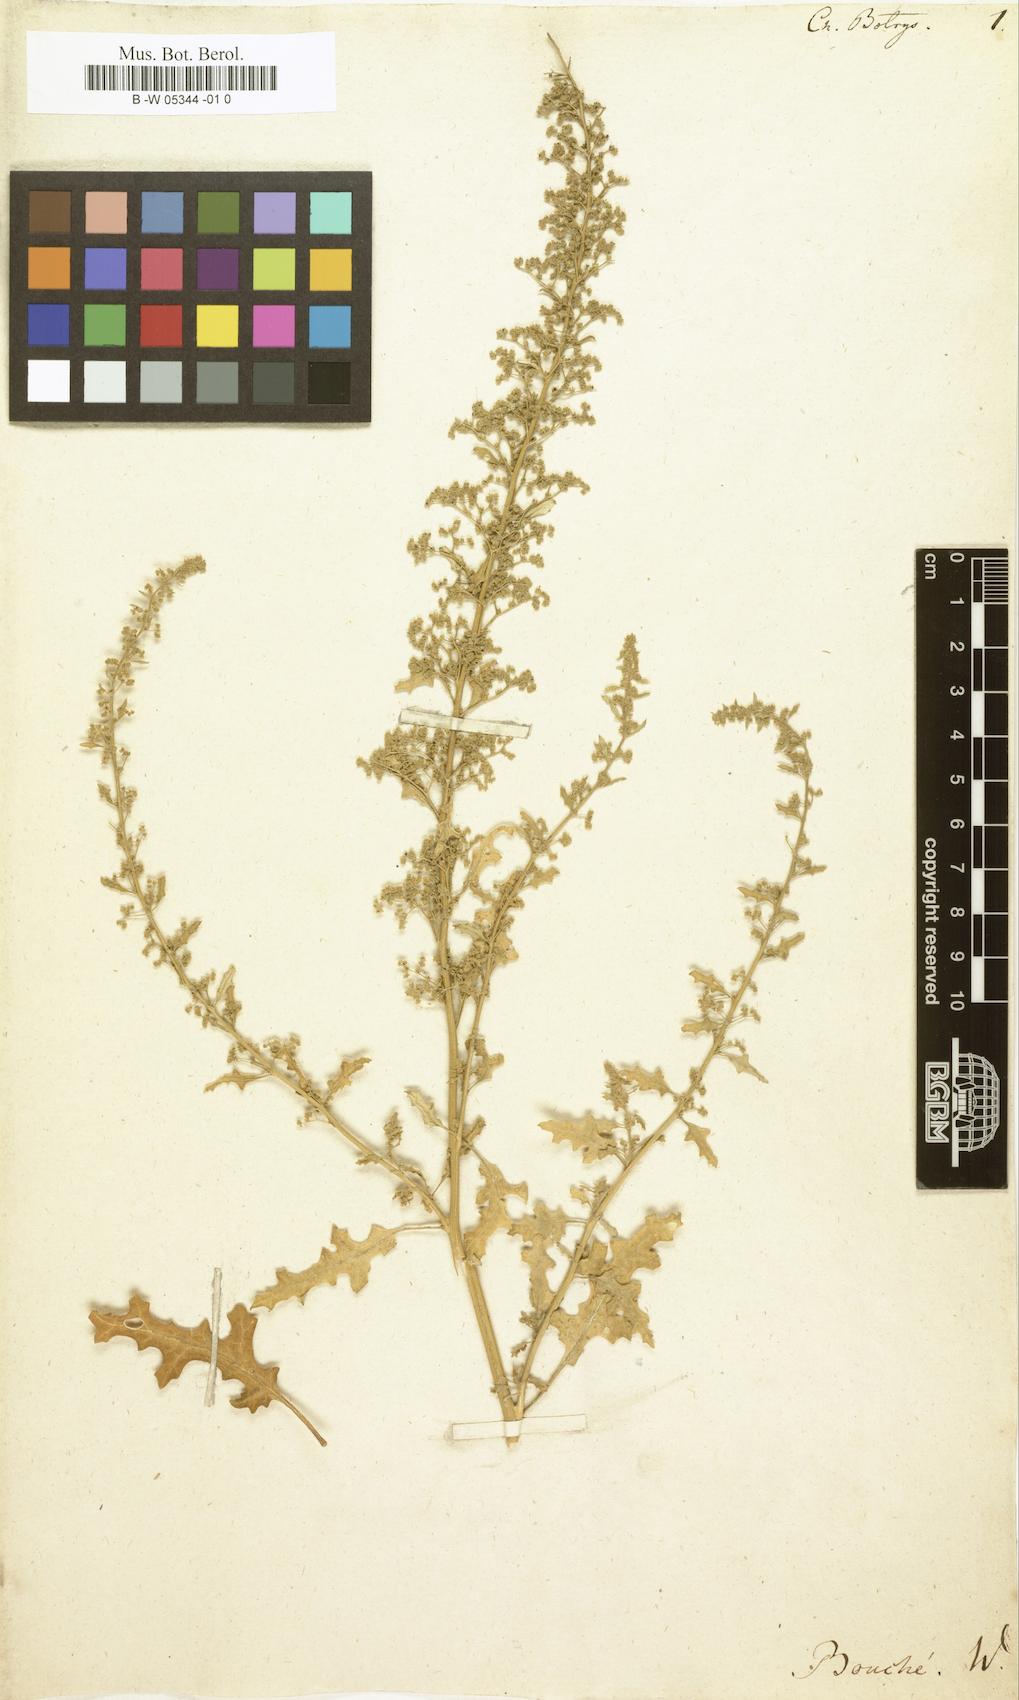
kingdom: Plantae
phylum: Tracheophyta
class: Magnoliopsida
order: Caryophyllales
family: Amaranthaceae
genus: Dysphania
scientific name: Dysphania botrys
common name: Feather-geranium
